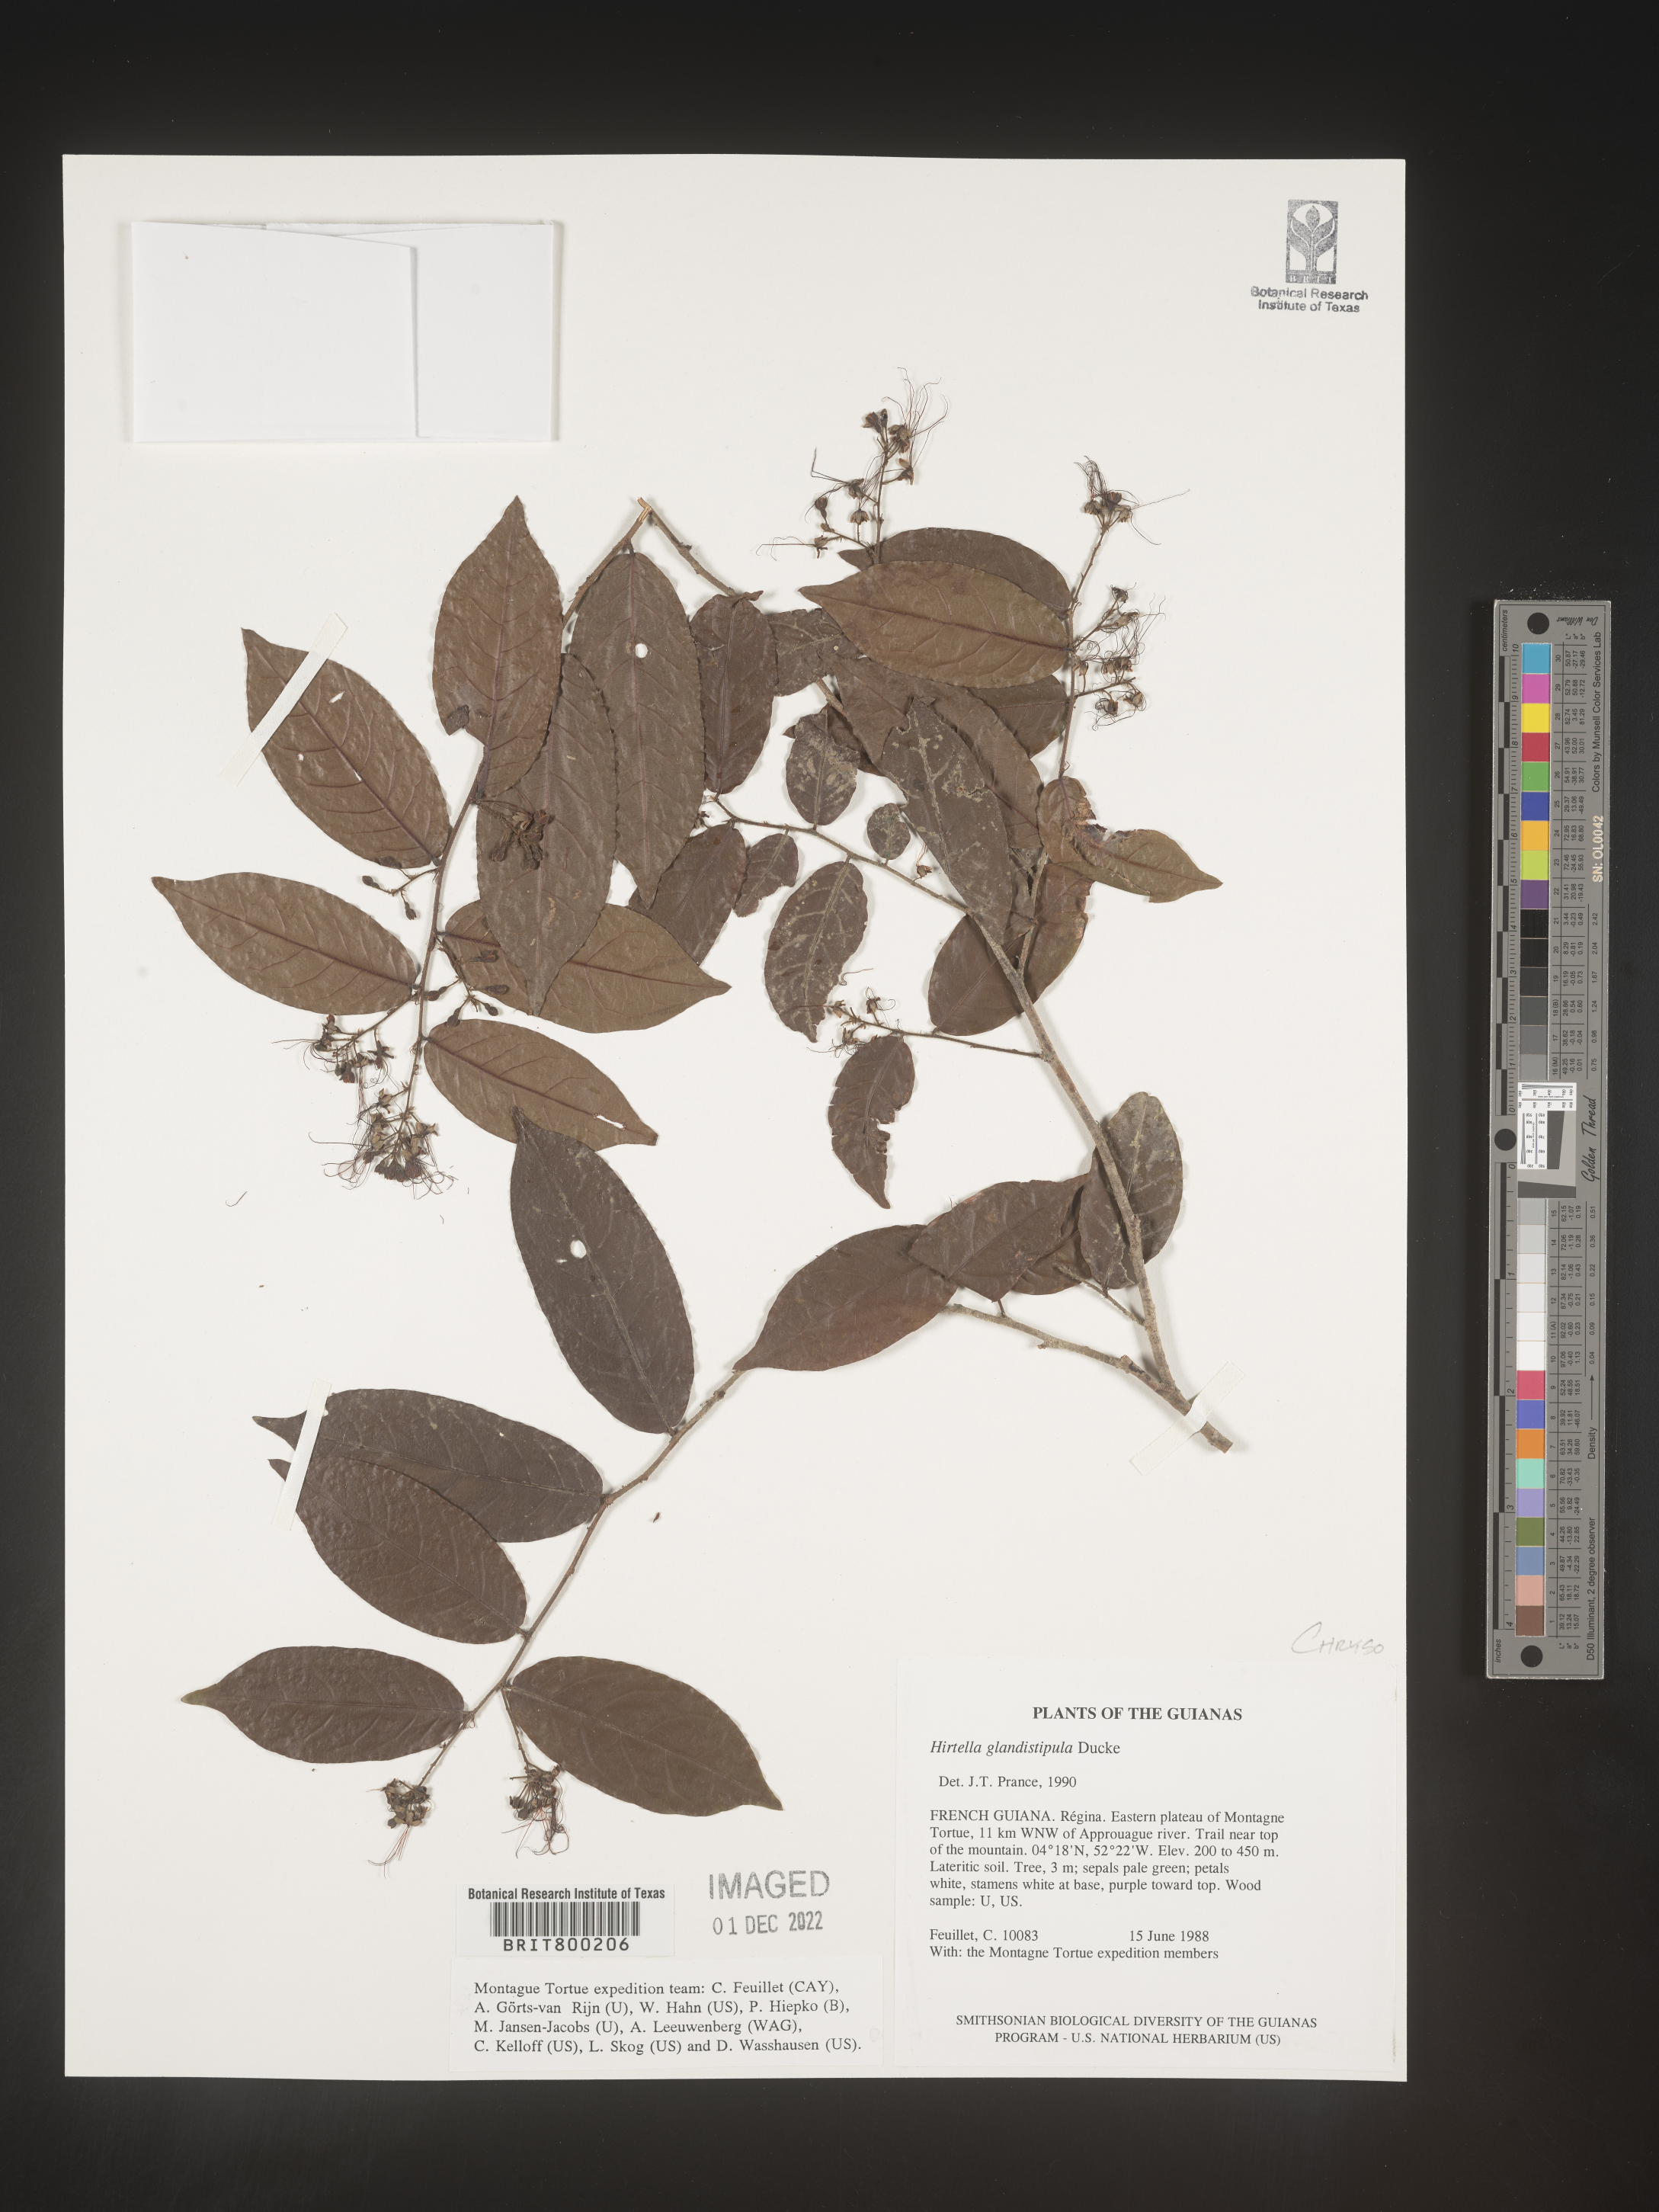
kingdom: Plantae
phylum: Tracheophyta
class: Magnoliopsida
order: Malpighiales
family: Chrysobalanaceae
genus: Hirtella
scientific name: Hirtella
